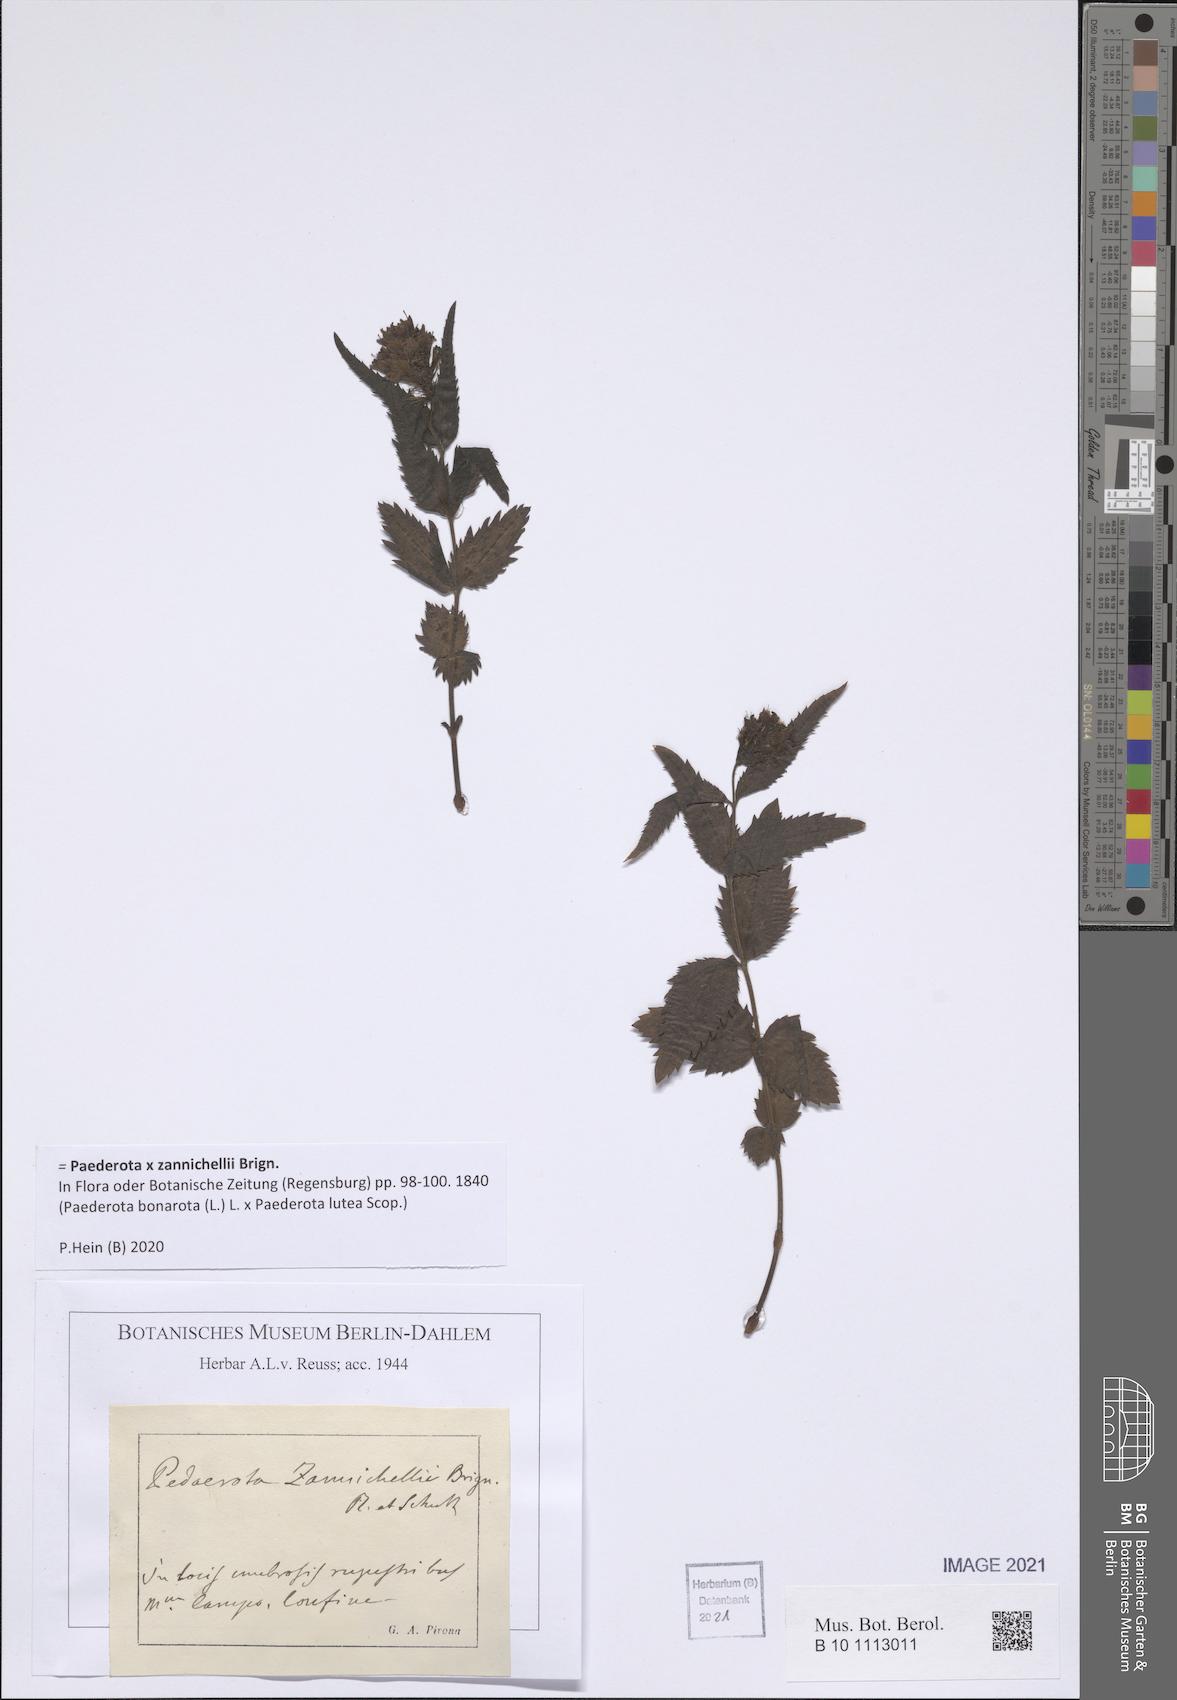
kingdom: Plantae
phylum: Tracheophyta
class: Magnoliopsida
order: Lamiales
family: Plantaginaceae
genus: Paederota
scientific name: Paederota lutea
